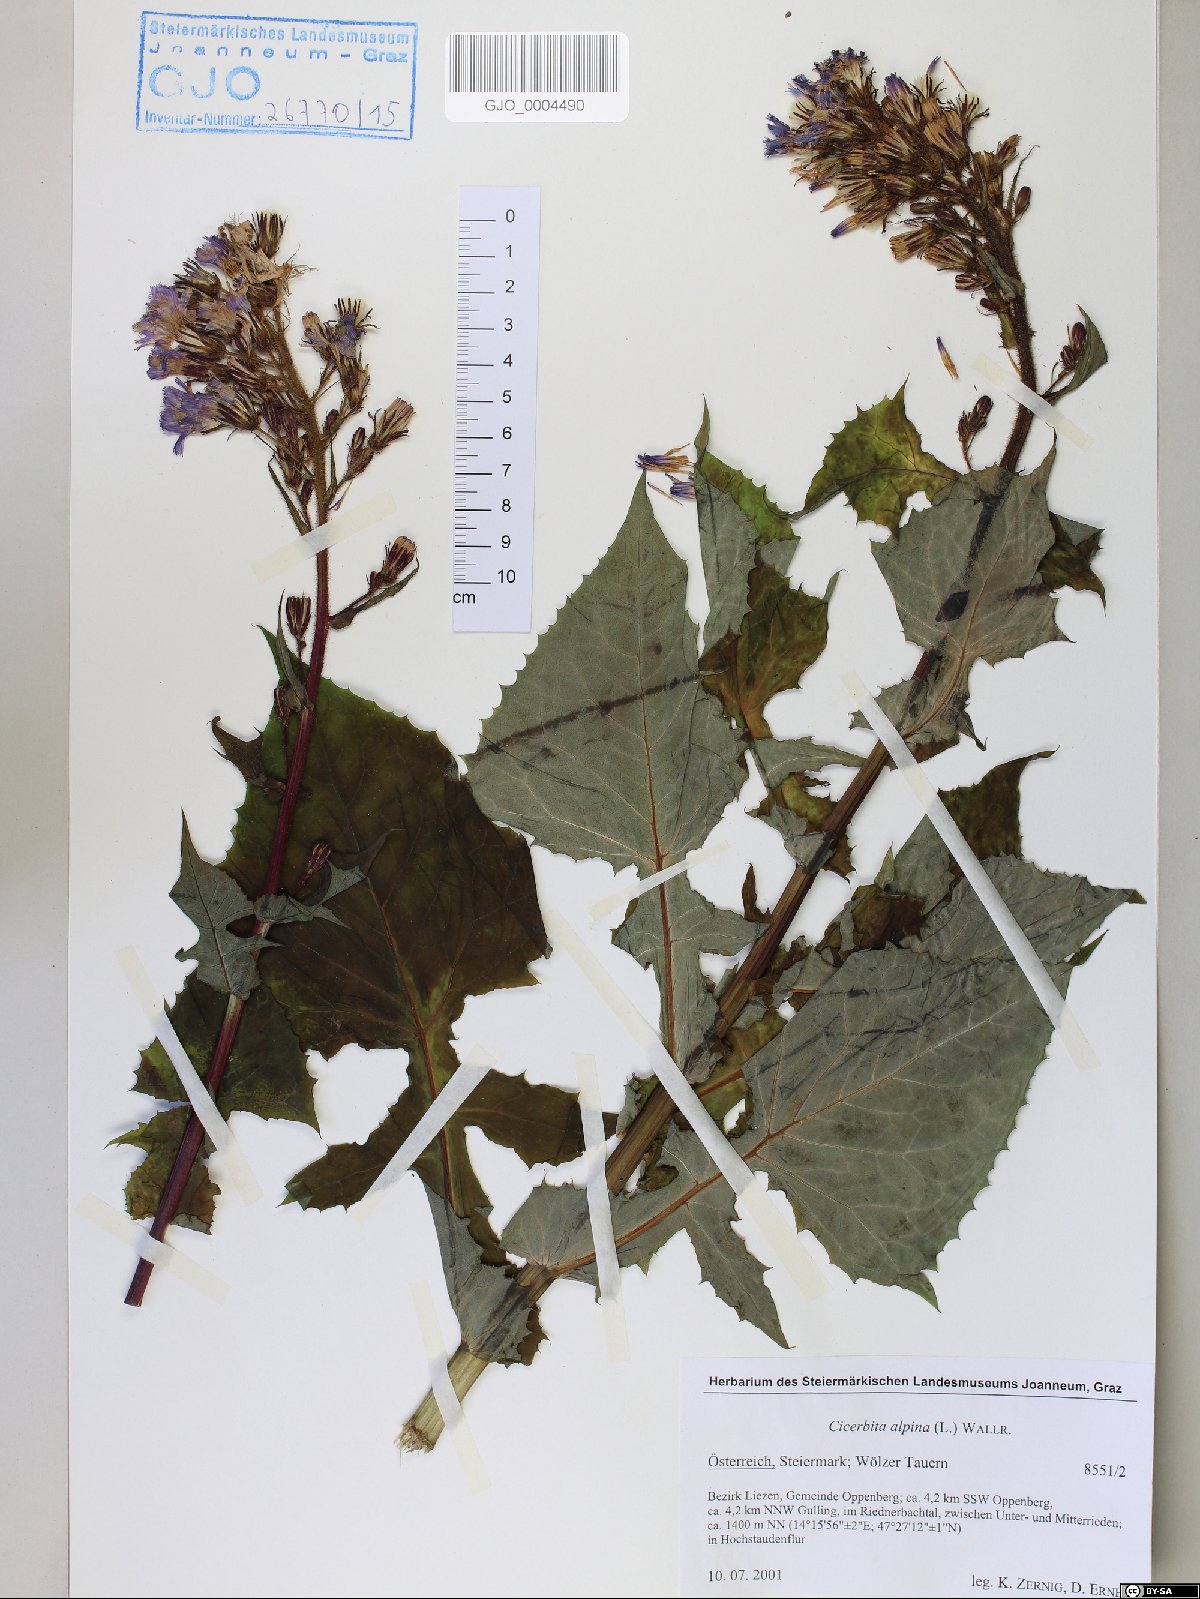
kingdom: Plantae
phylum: Tracheophyta
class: Magnoliopsida
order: Asterales
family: Asteraceae
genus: Cicerbita
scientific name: Cicerbita alpina
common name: Alpine blue-sow-thistle
